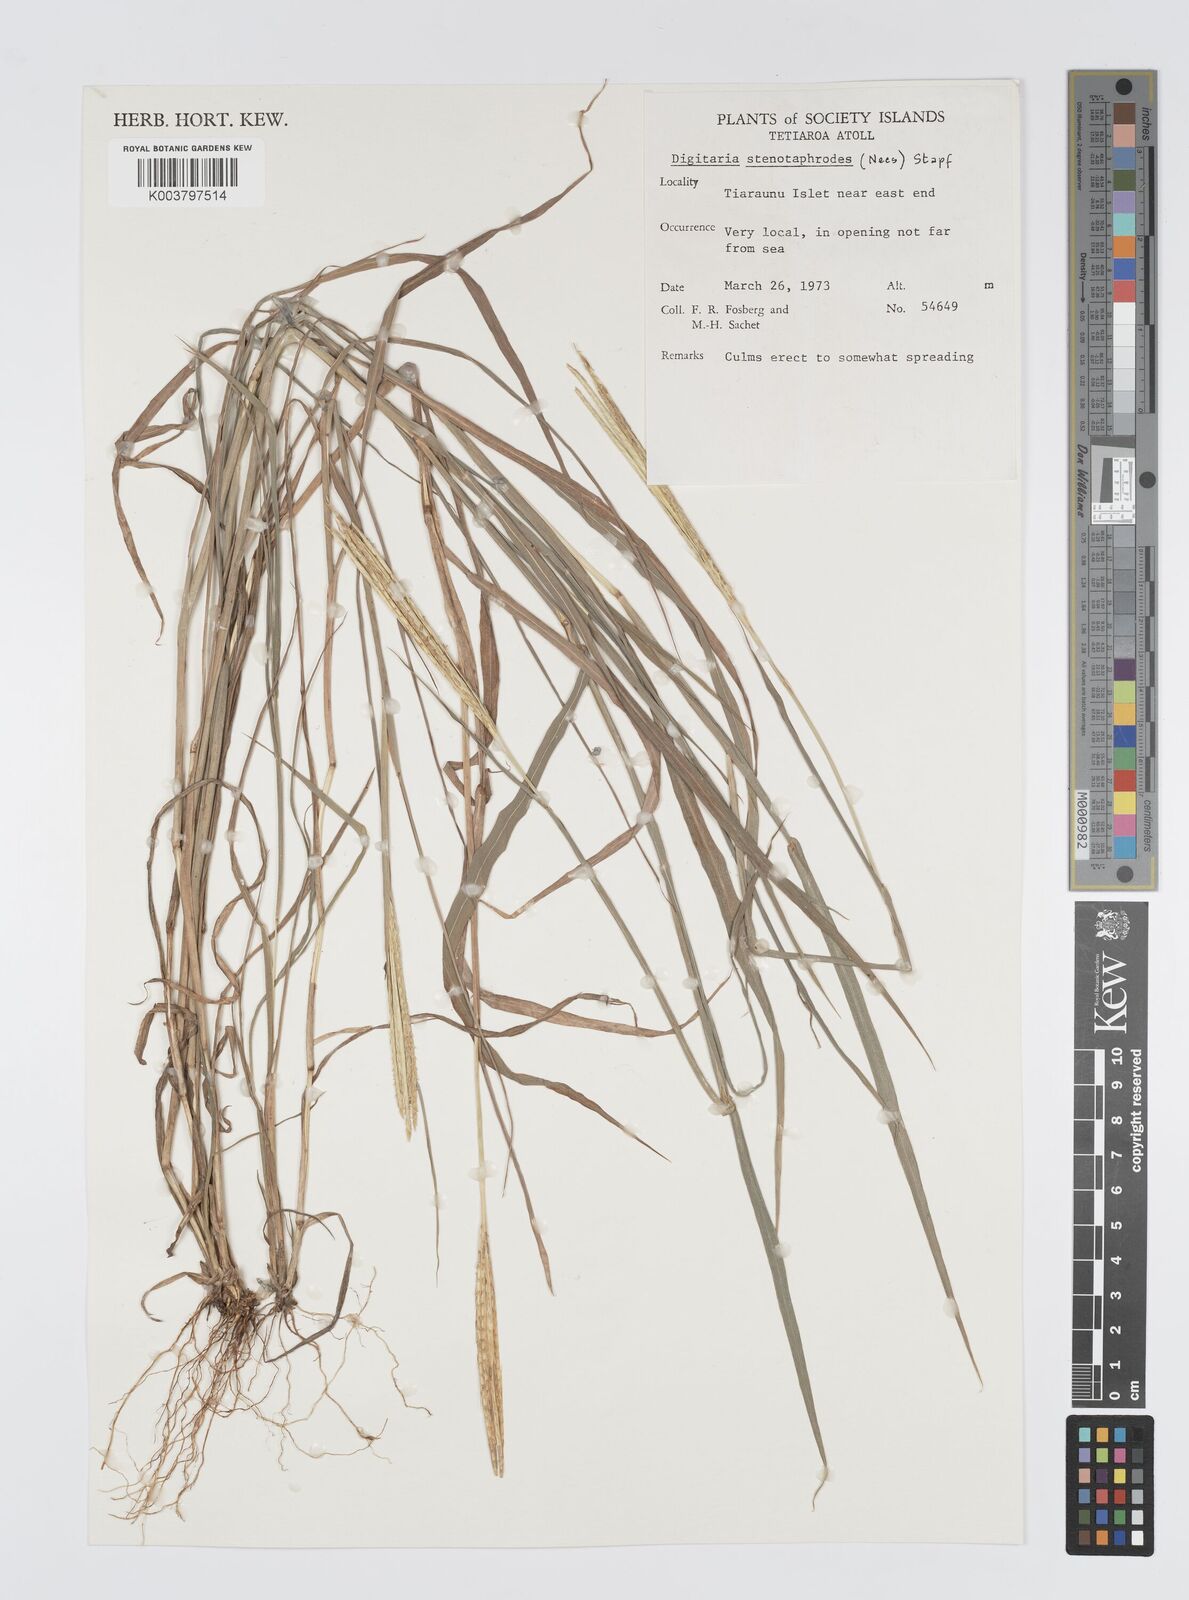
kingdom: Plantae
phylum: Tracheophyta
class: Liliopsida
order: Poales
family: Poaceae
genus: Digitaria
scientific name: Digitaria stenotaphrodes
